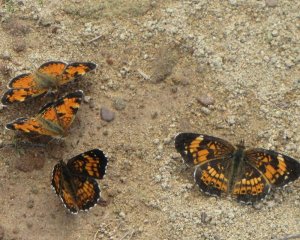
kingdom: Animalia
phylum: Arthropoda
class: Insecta
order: Lepidoptera
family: Nymphalidae
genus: Phyciodes
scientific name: Phyciodes tharos
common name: Northern Crescent
